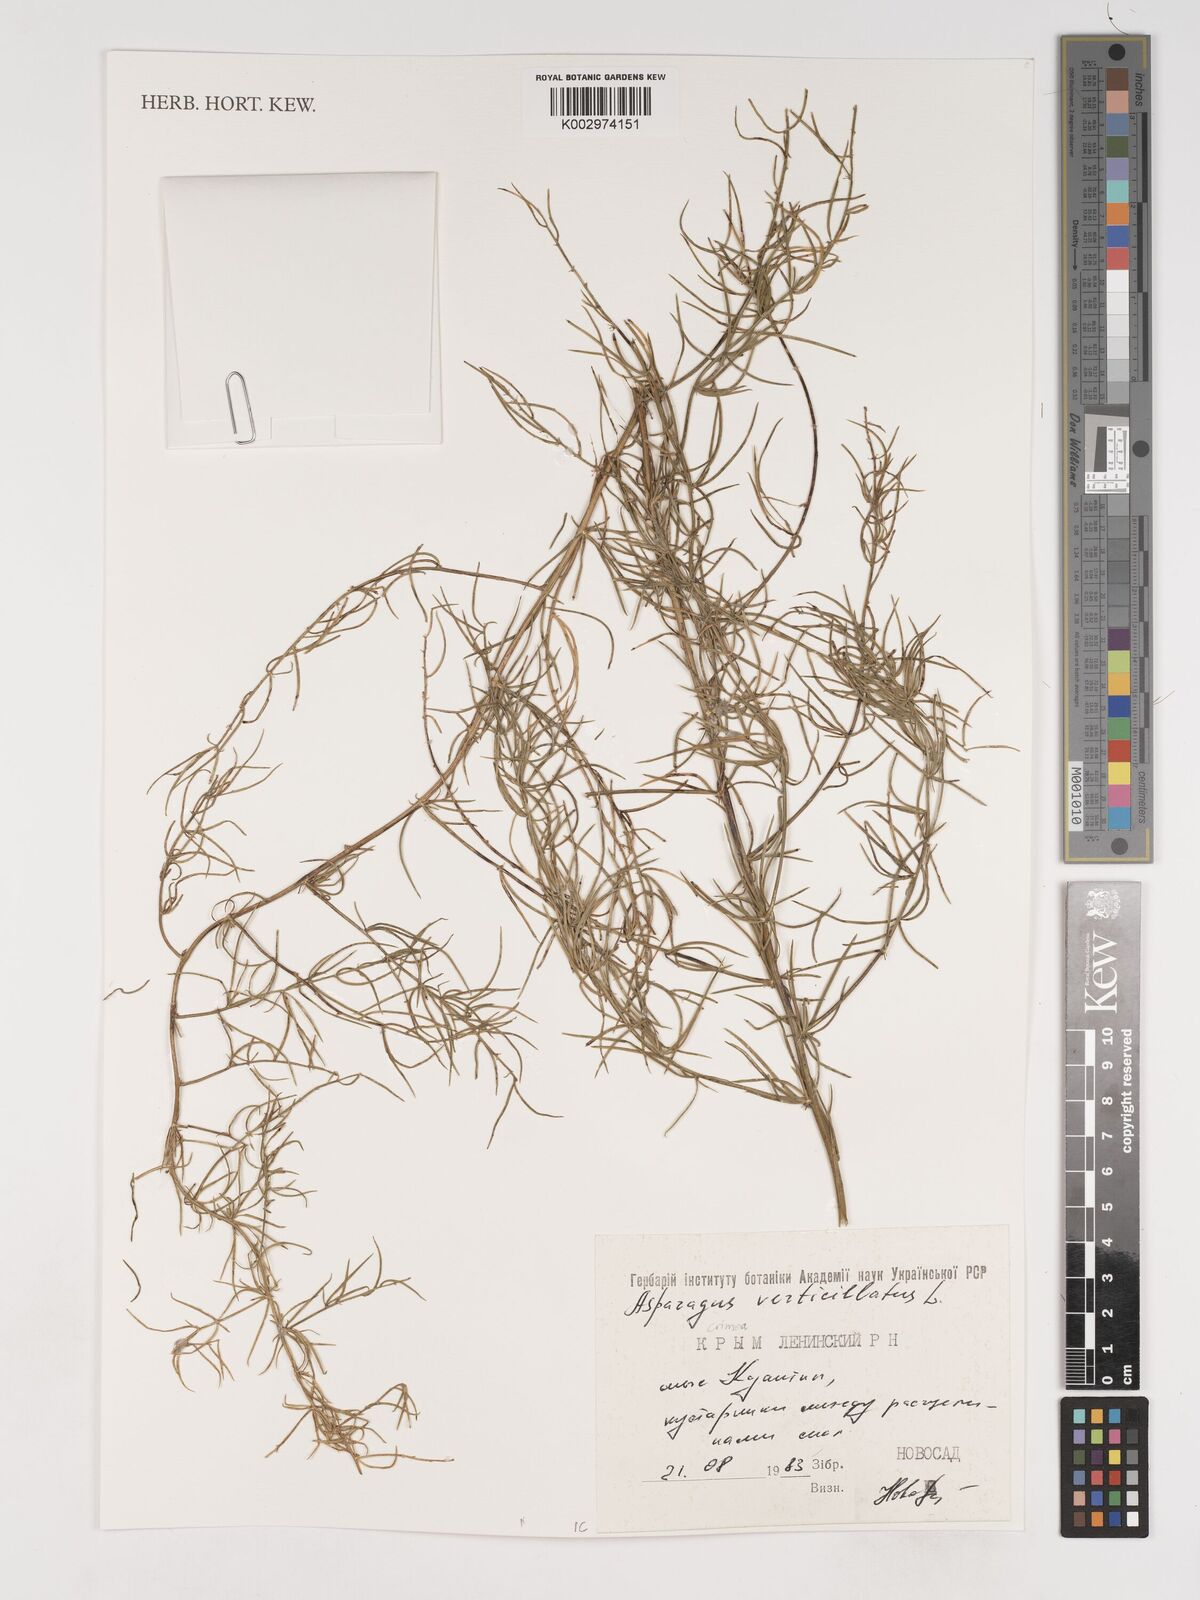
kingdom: Plantae
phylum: Tracheophyta
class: Liliopsida
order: Asparagales
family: Asparagaceae
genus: Asparagus
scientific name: Asparagus verticillatus
